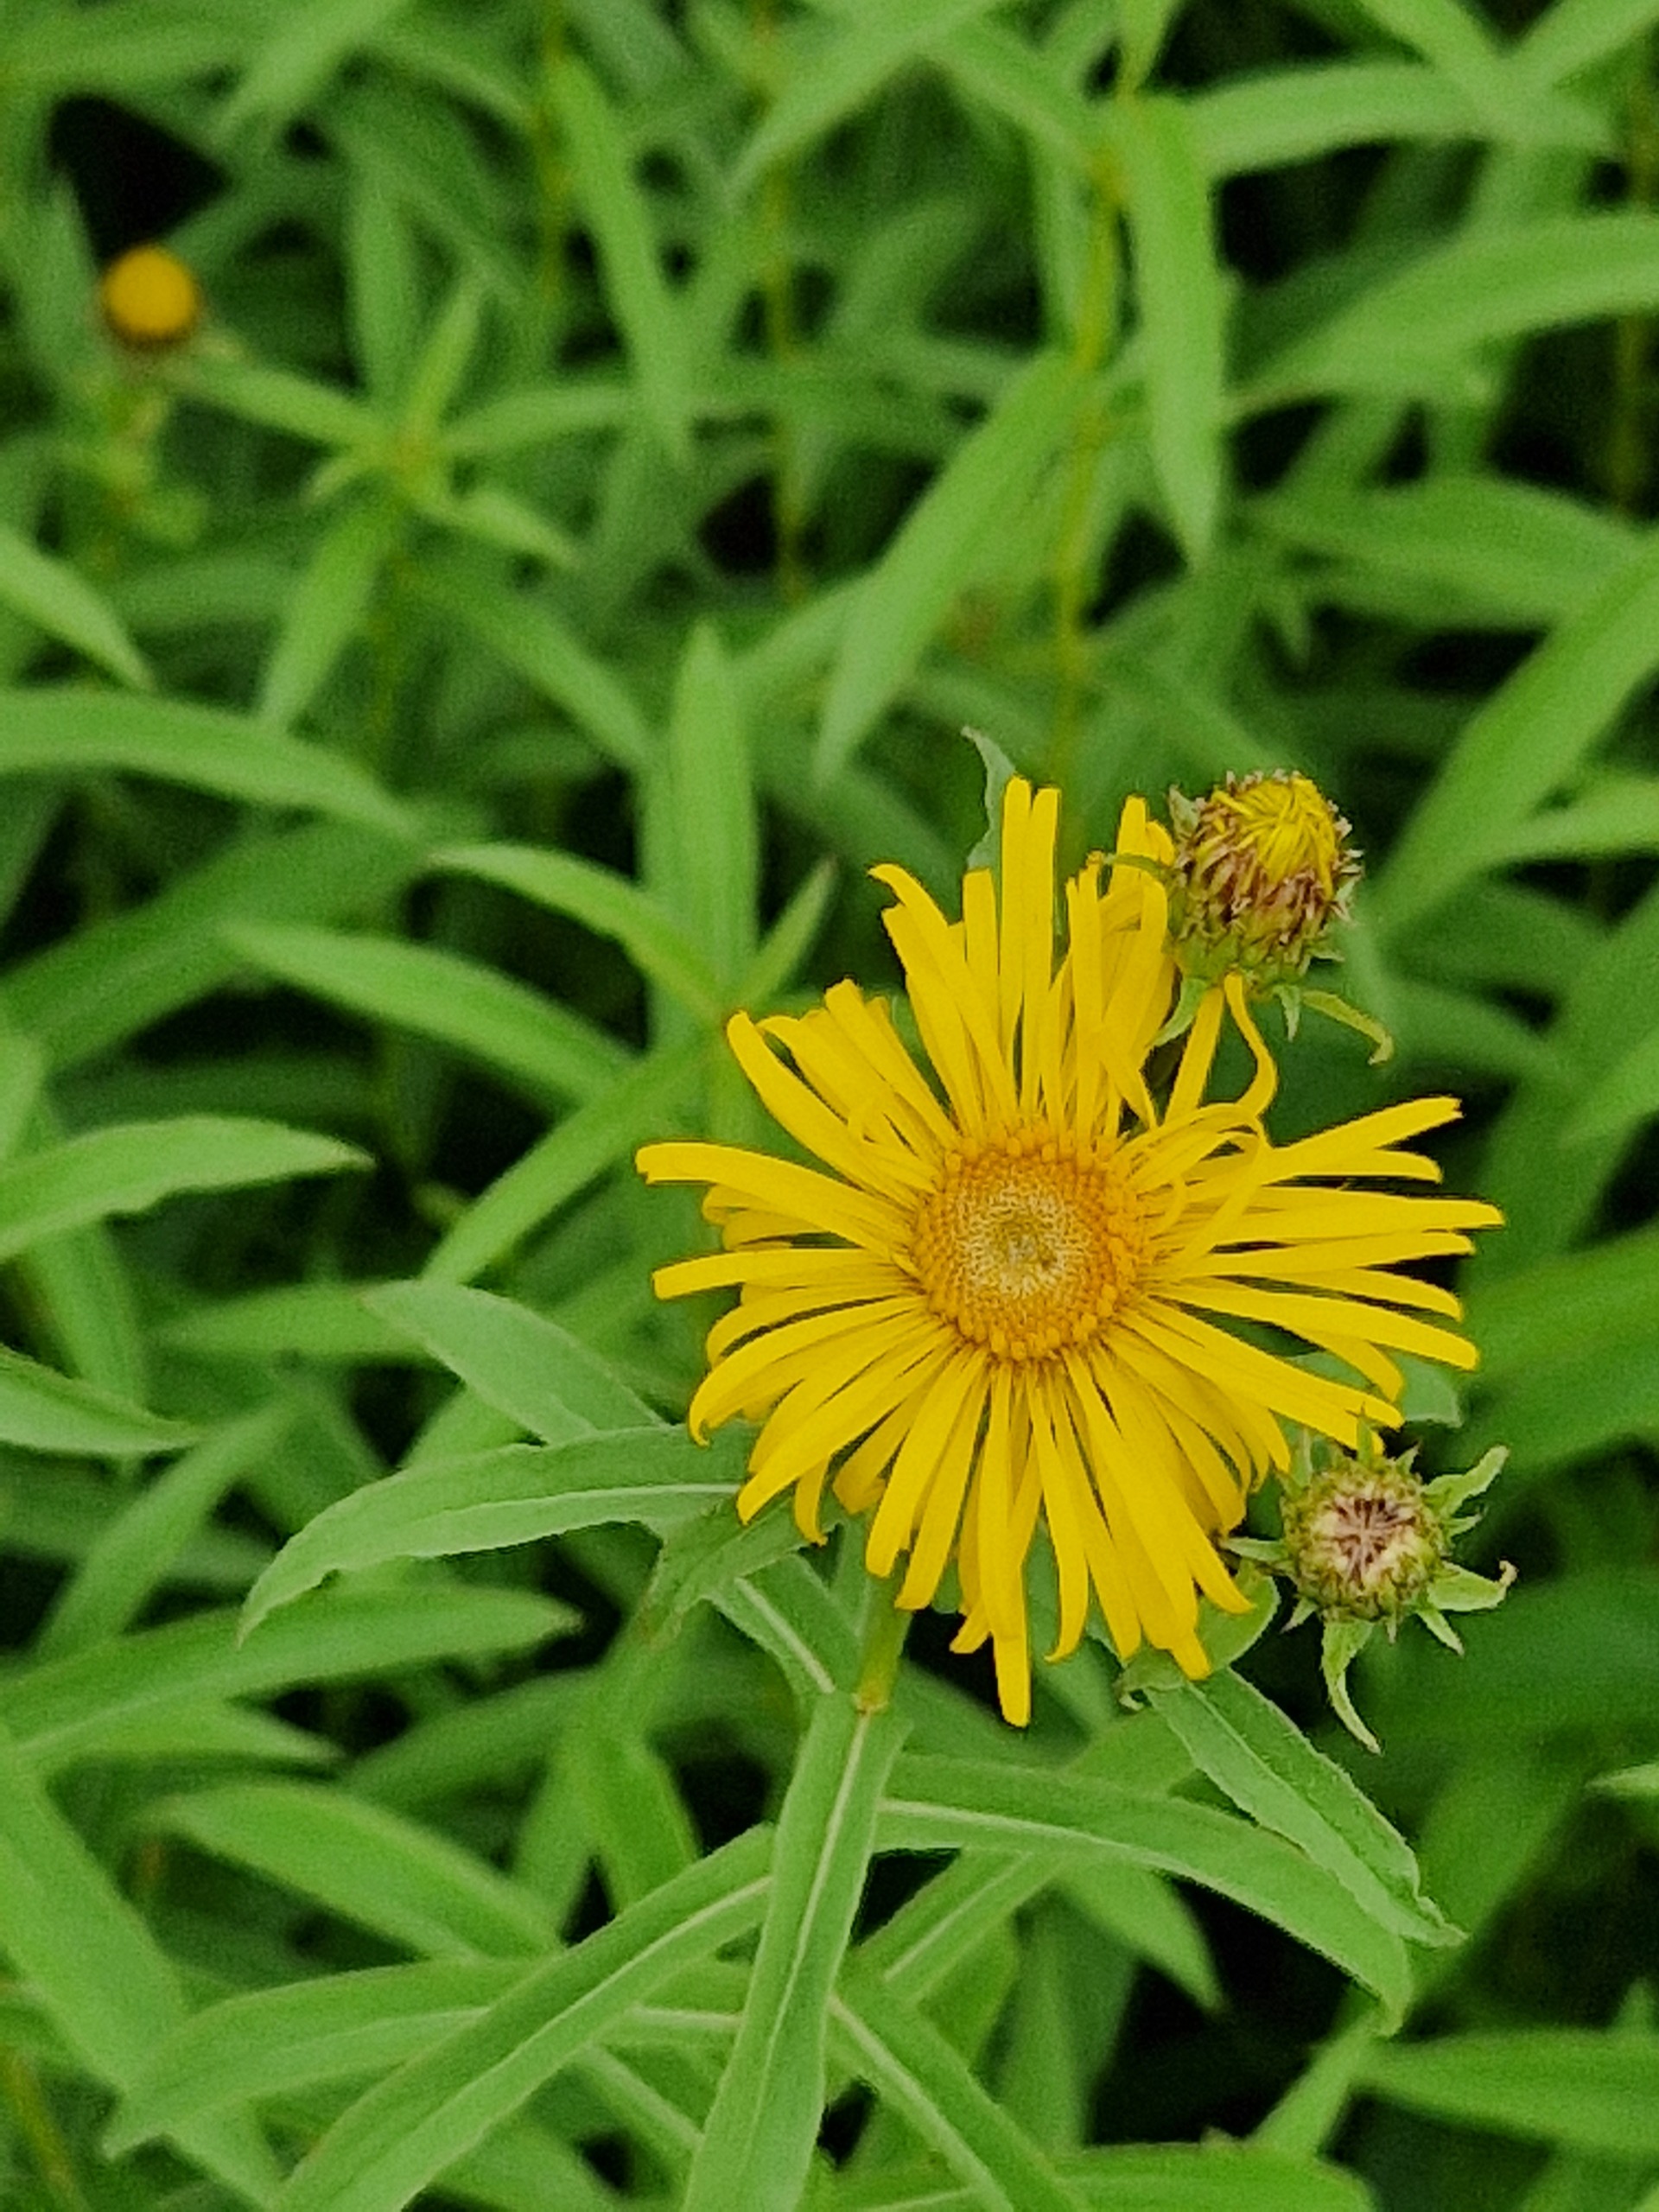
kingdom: Plantae
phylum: Tracheophyta
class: Magnoliopsida
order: Asterales
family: Asteraceae
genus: Pentanema
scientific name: Pentanema salicinum
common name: Pile-alant
